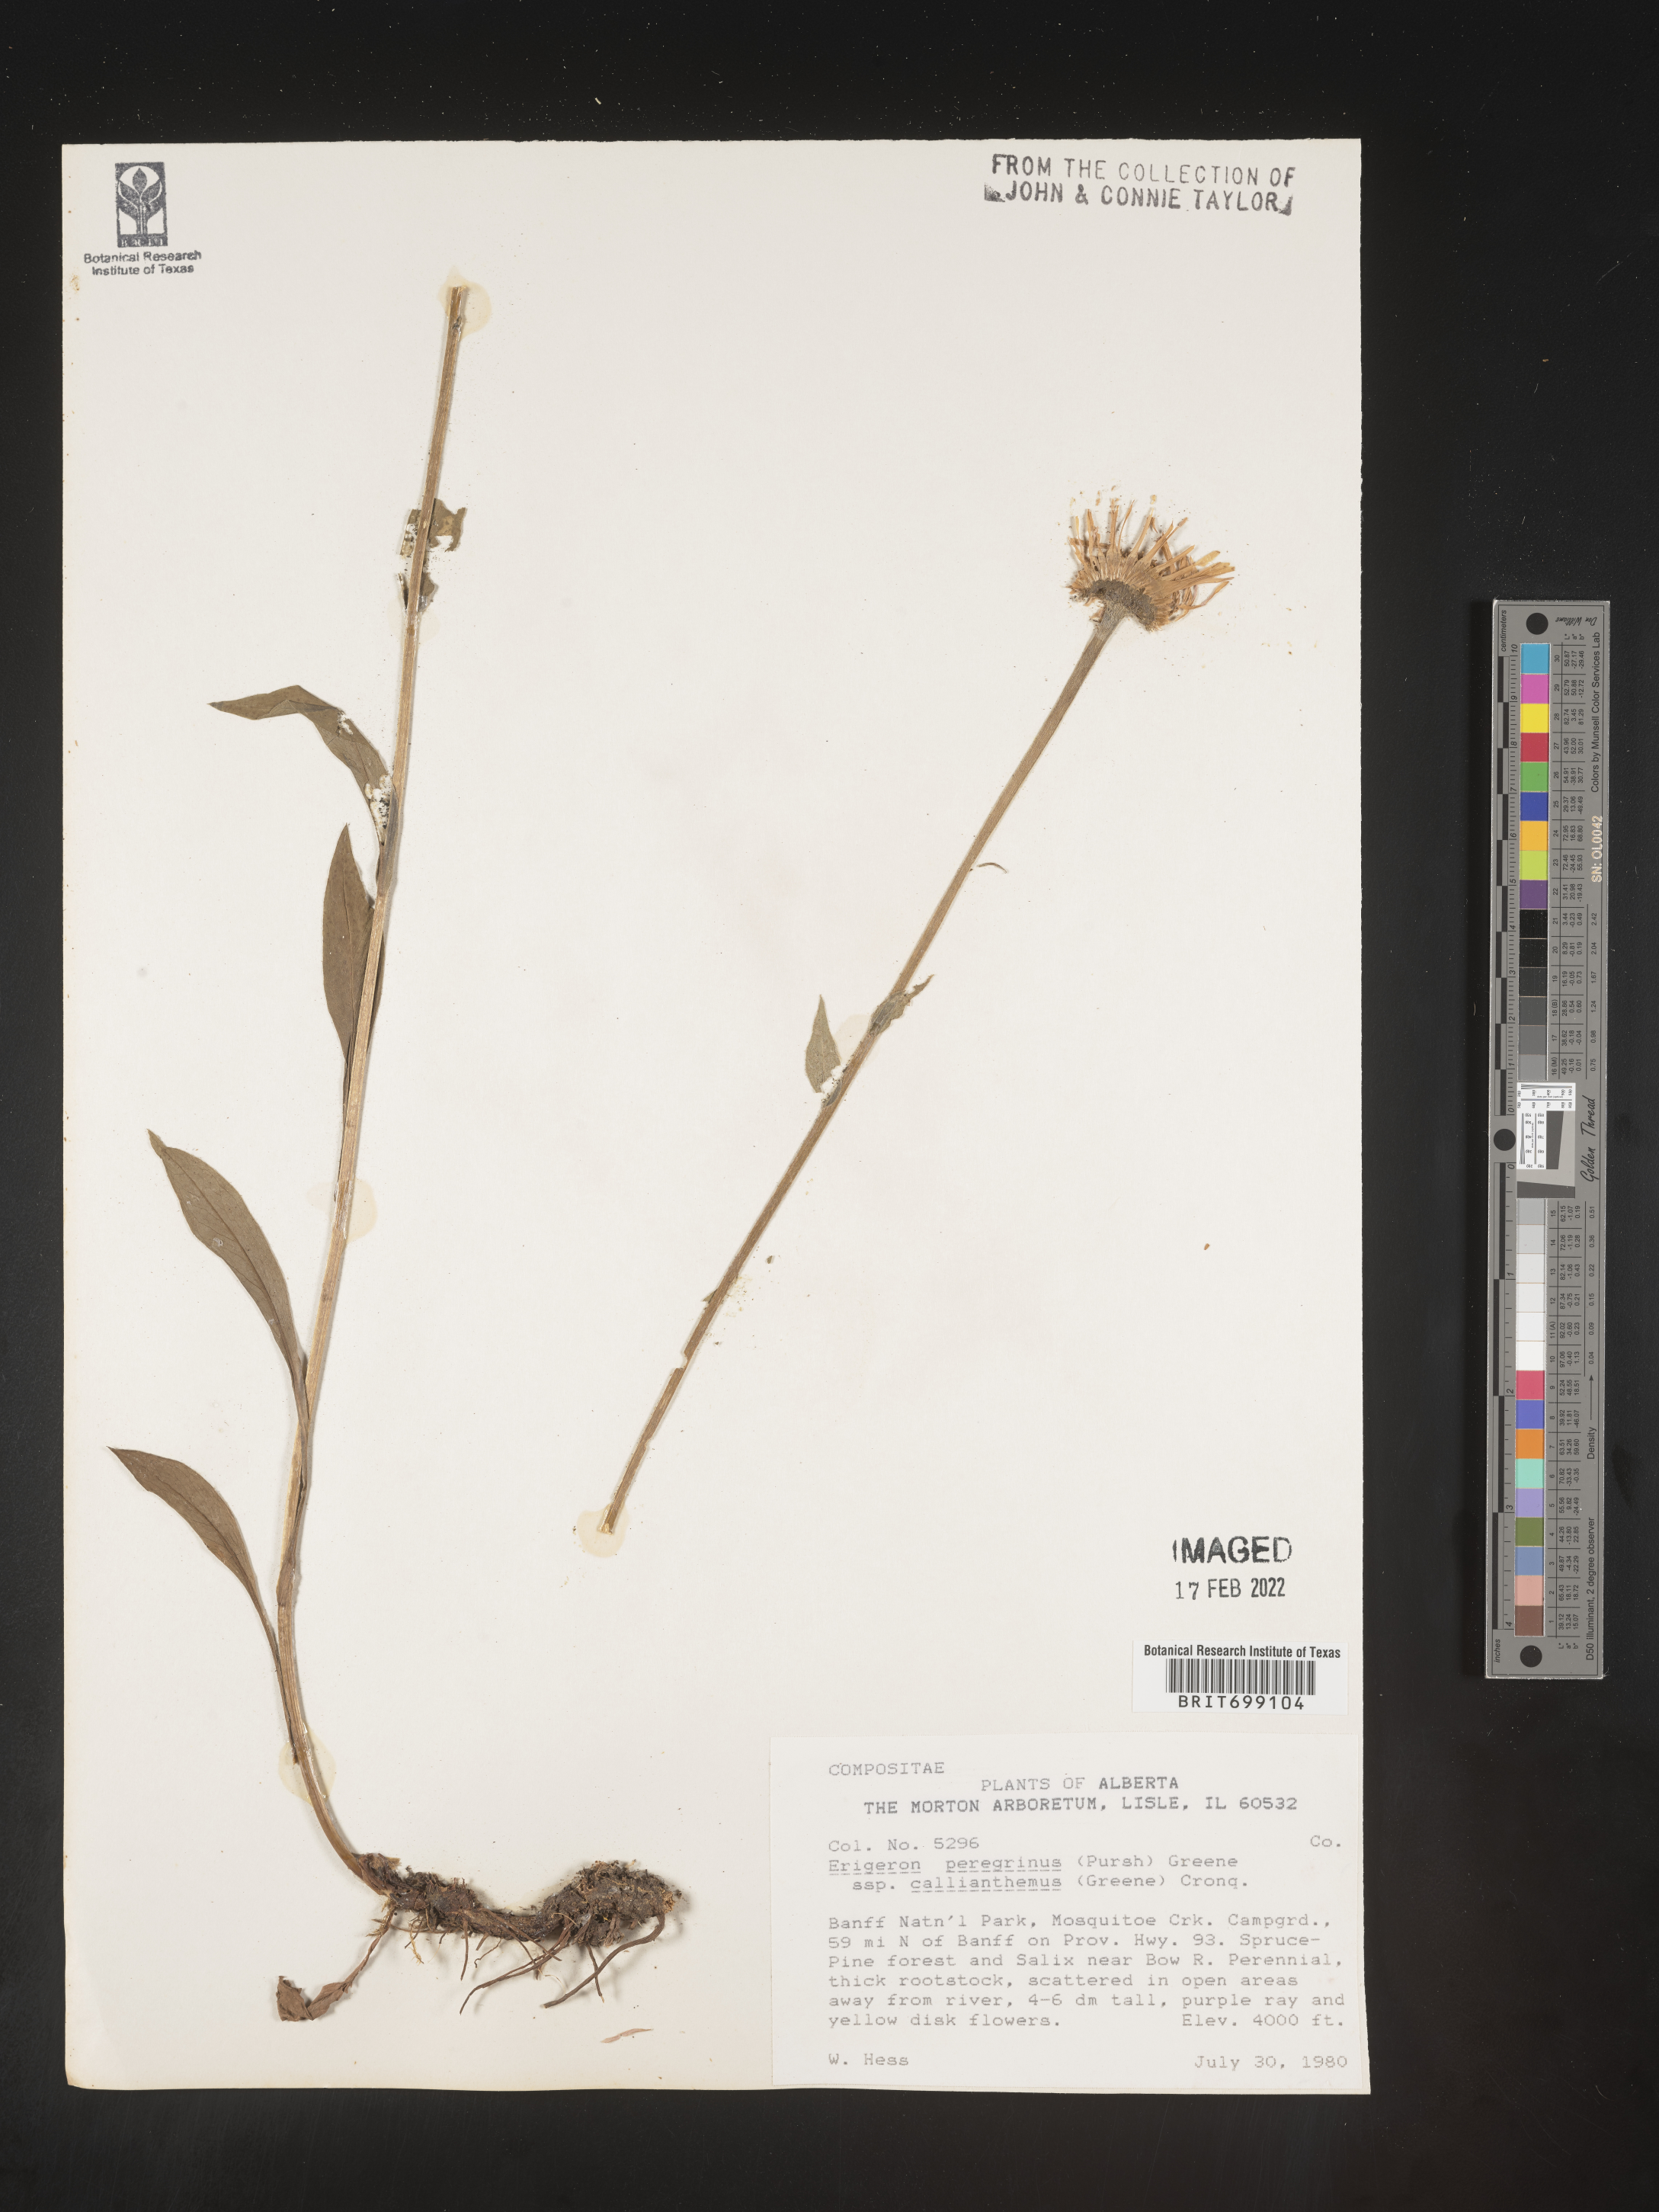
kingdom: Plantae
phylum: Tracheophyta
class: Magnoliopsida
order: Asterales
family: Asteraceae
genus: Erigeron
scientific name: Erigeron peregrinus
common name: Peregrine fleabane
